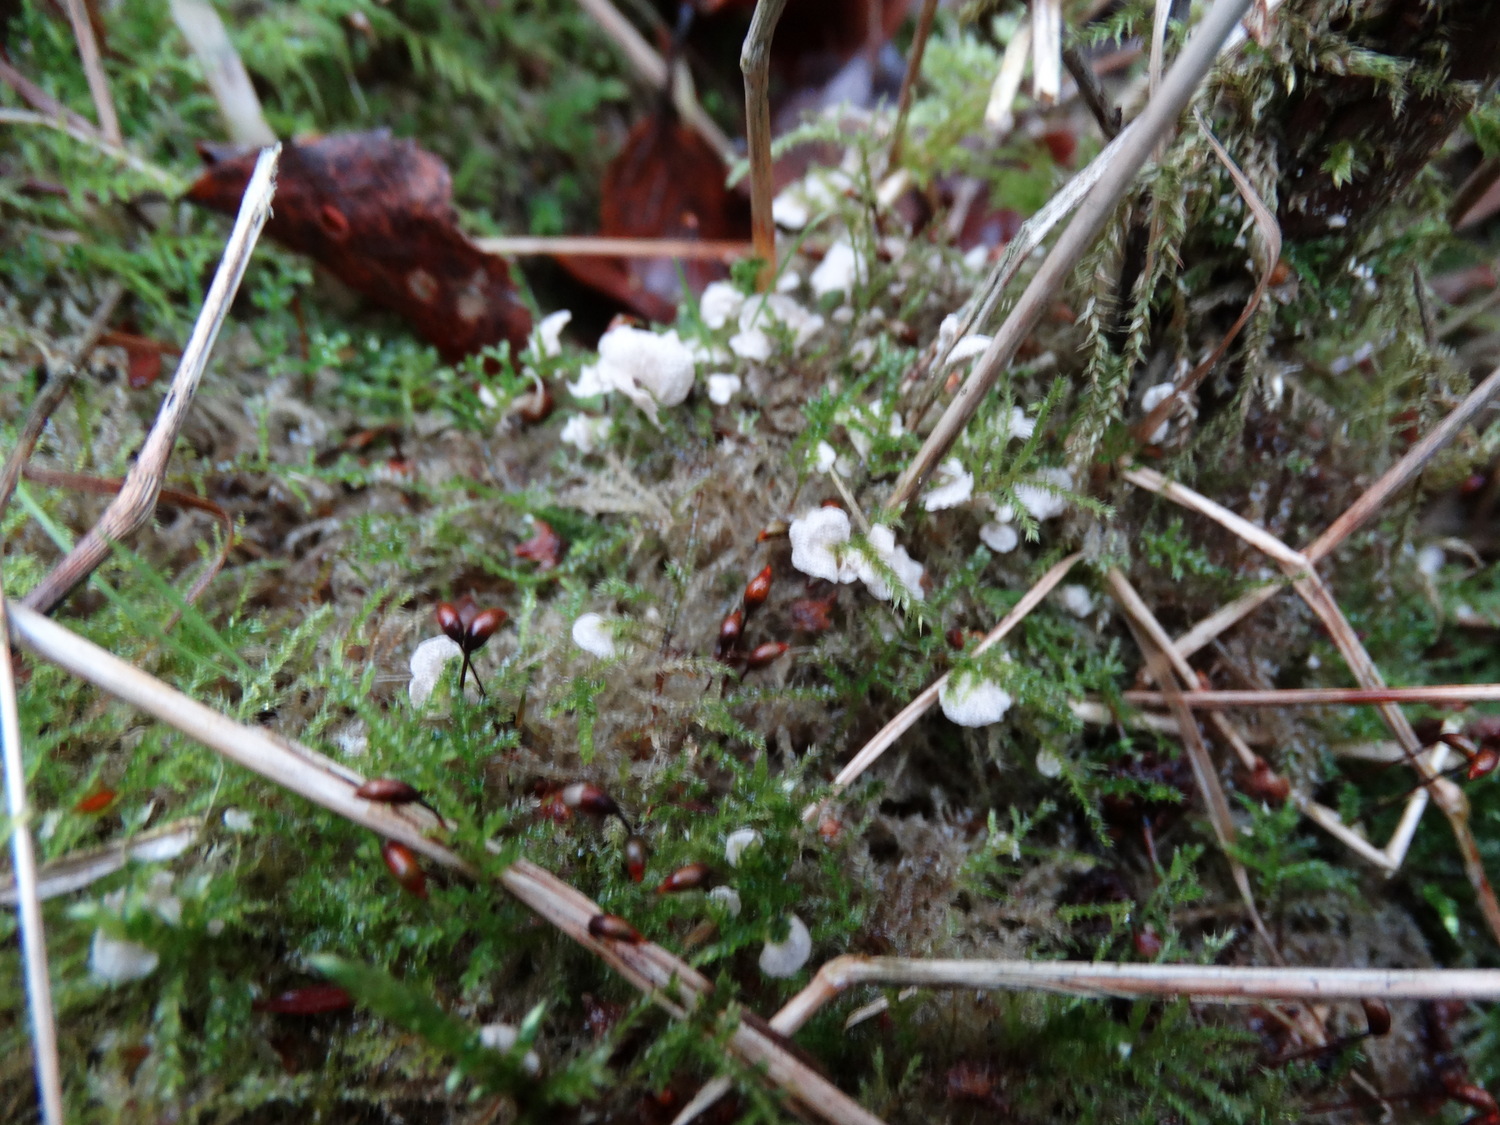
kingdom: Fungi
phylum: Basidiomycota
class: Agaricomycetes
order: Agaricales
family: Hygrophoraceae
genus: Arrhenia
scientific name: Arrhenia retiruga
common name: lille fontænehat
